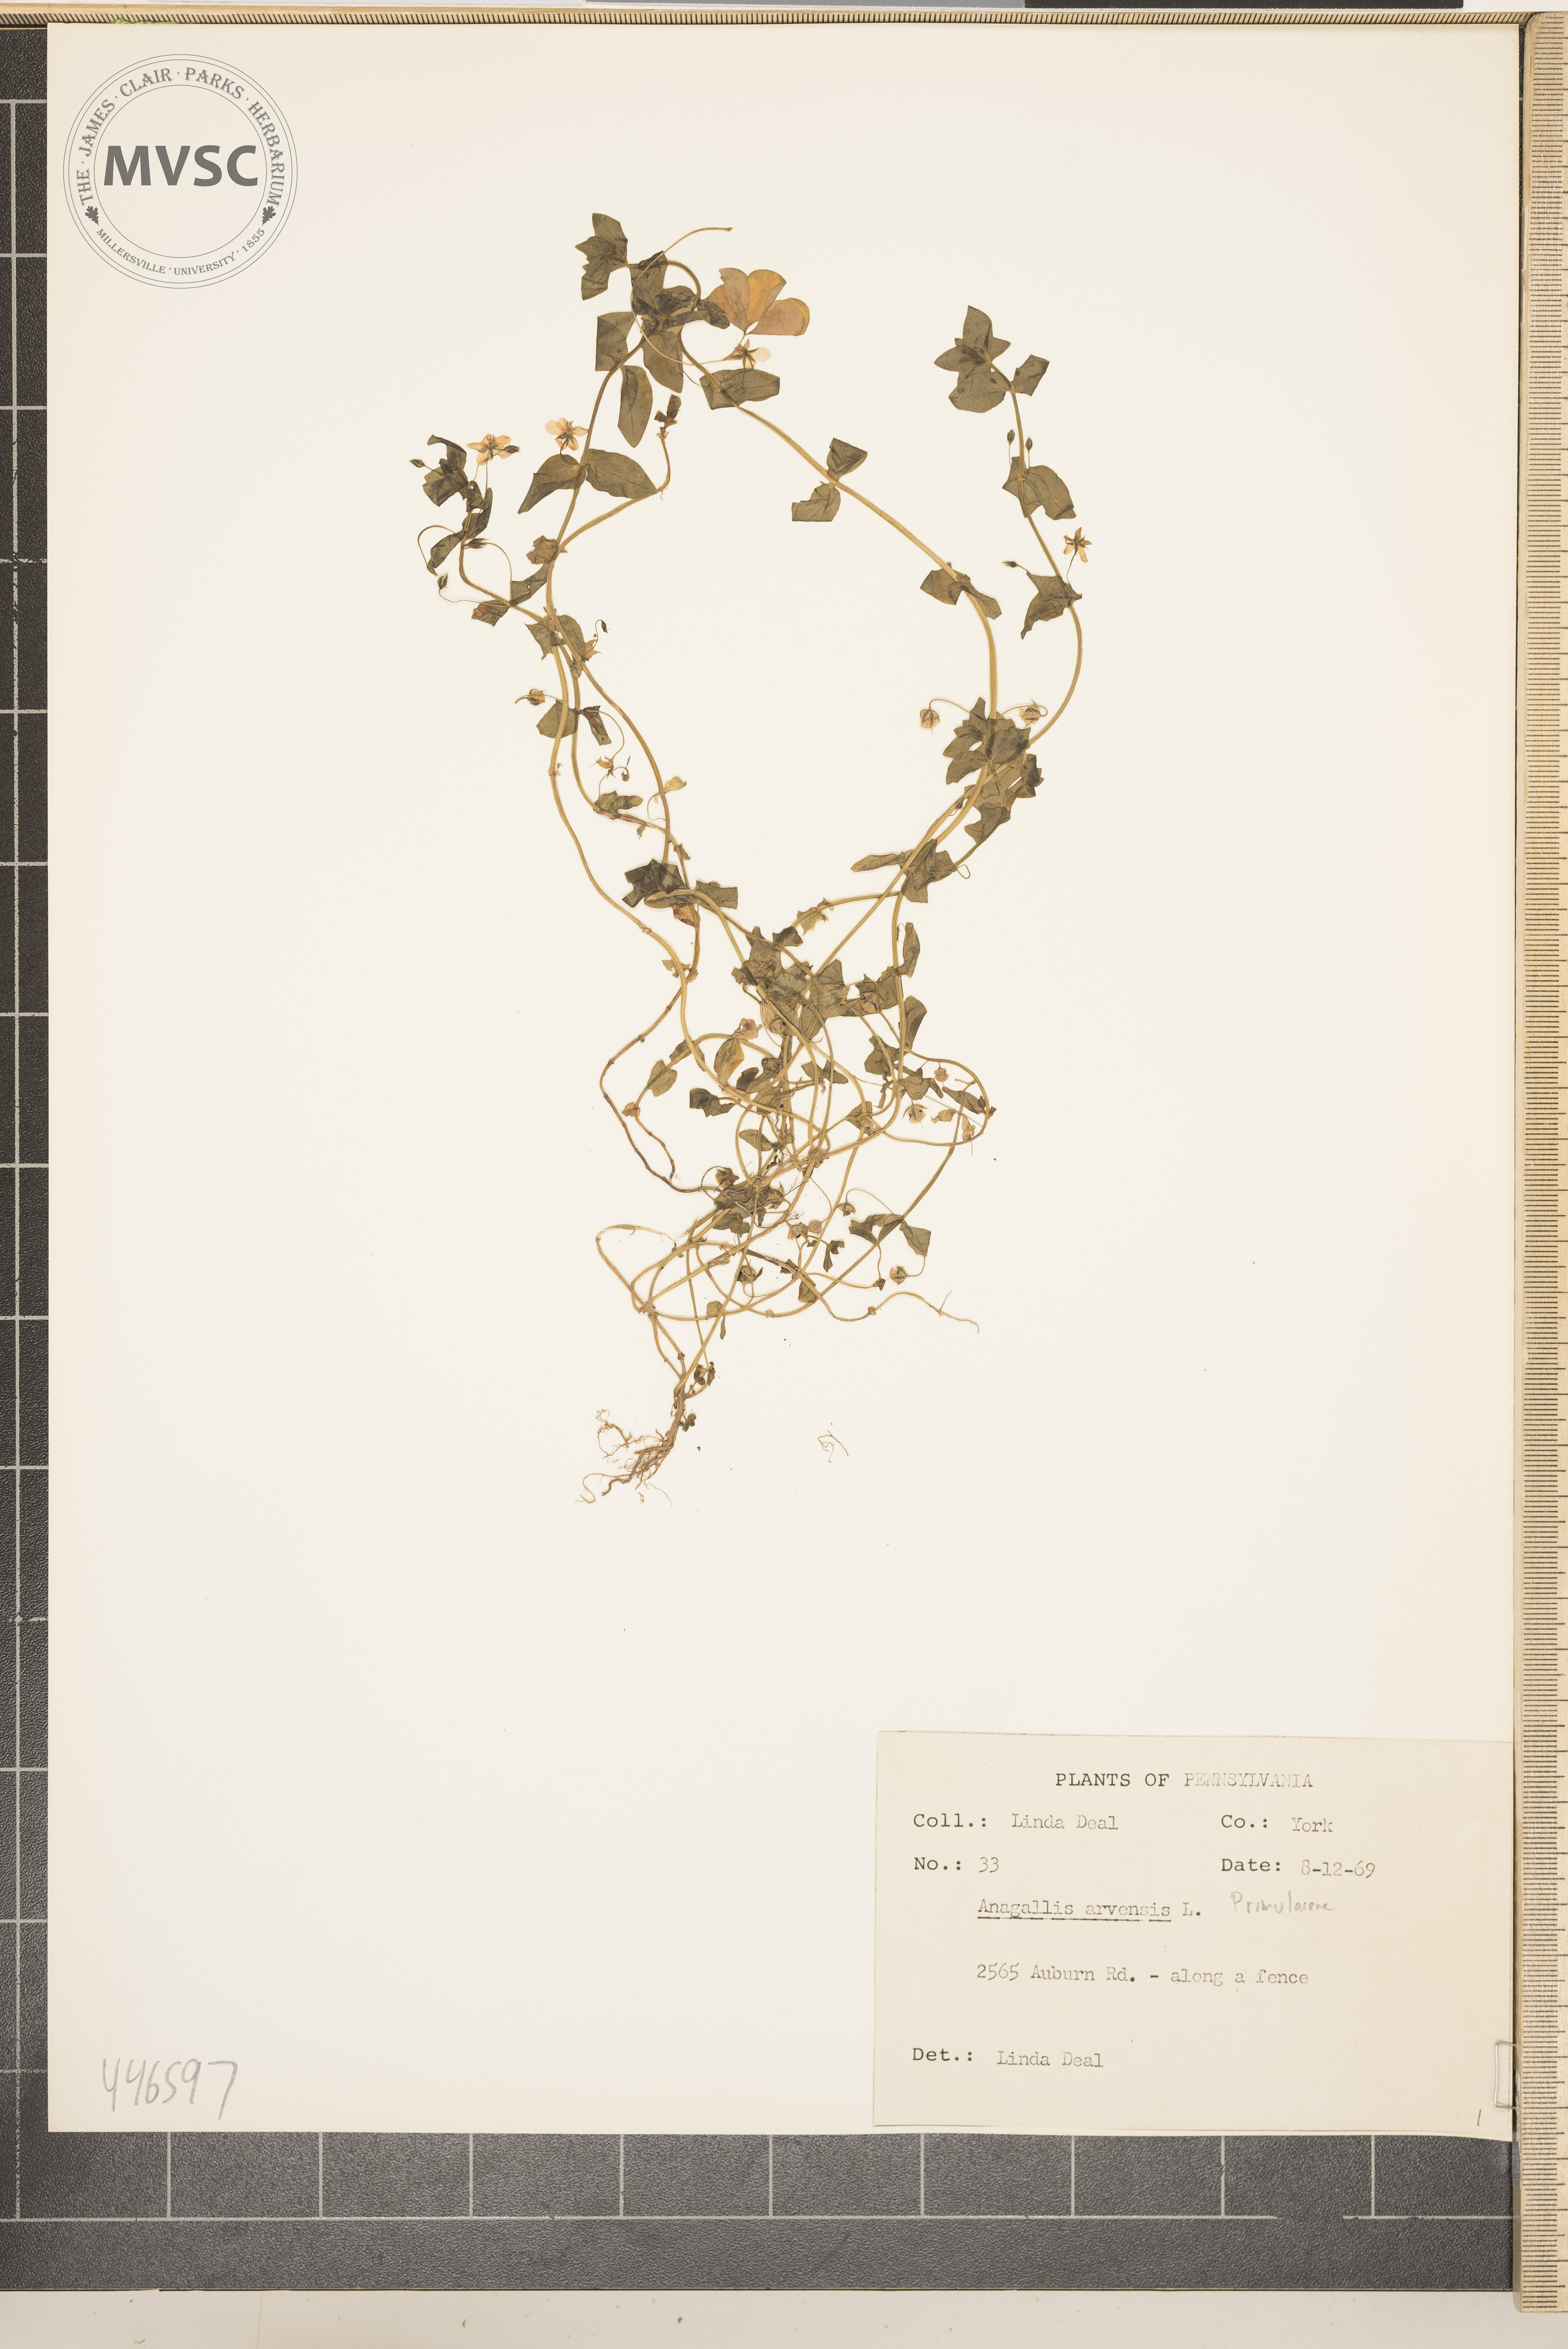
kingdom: Plantae
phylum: Tracheophyta
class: Magnoliopsida
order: Ericales
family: Primulaceae
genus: Lysimachia
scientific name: Lysimachia arvensis
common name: Scarlet pimpernel
